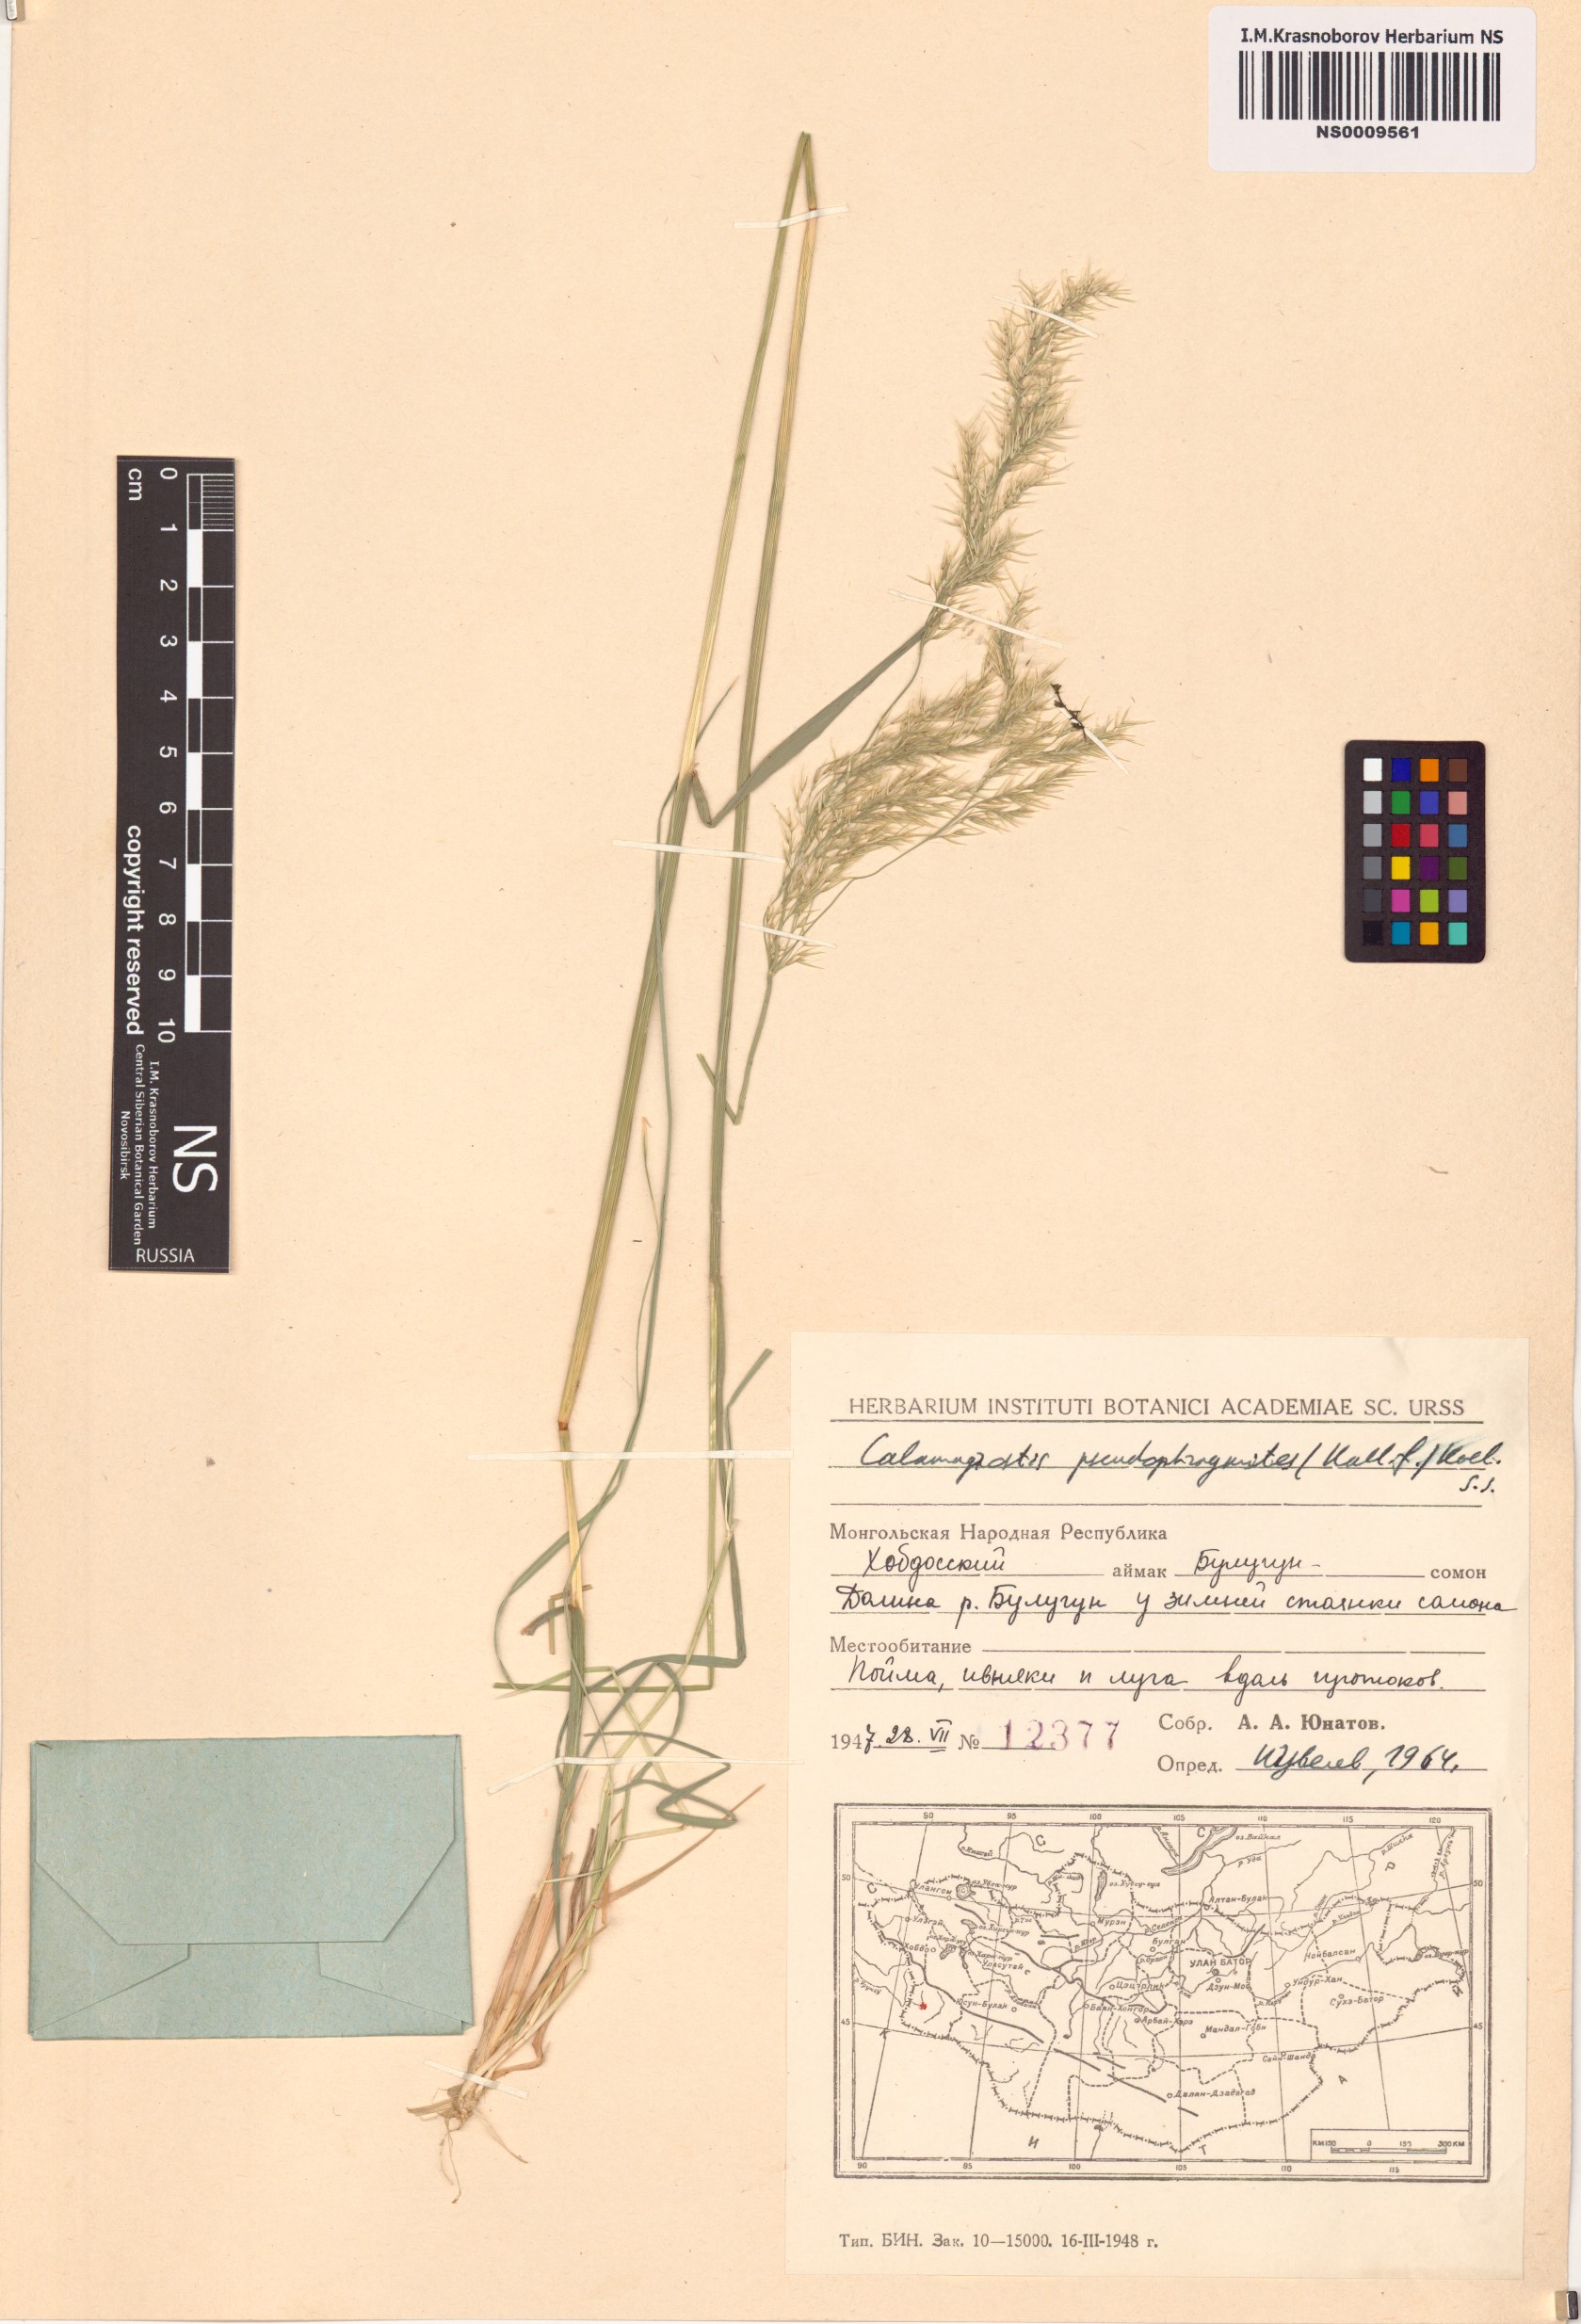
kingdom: Plantae
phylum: Tracheophyta
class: Liliopsida
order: Poales
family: Poaceae
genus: Calamagrostis
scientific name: Calamagrostis pseudophragmites
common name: Coastal small-reed
